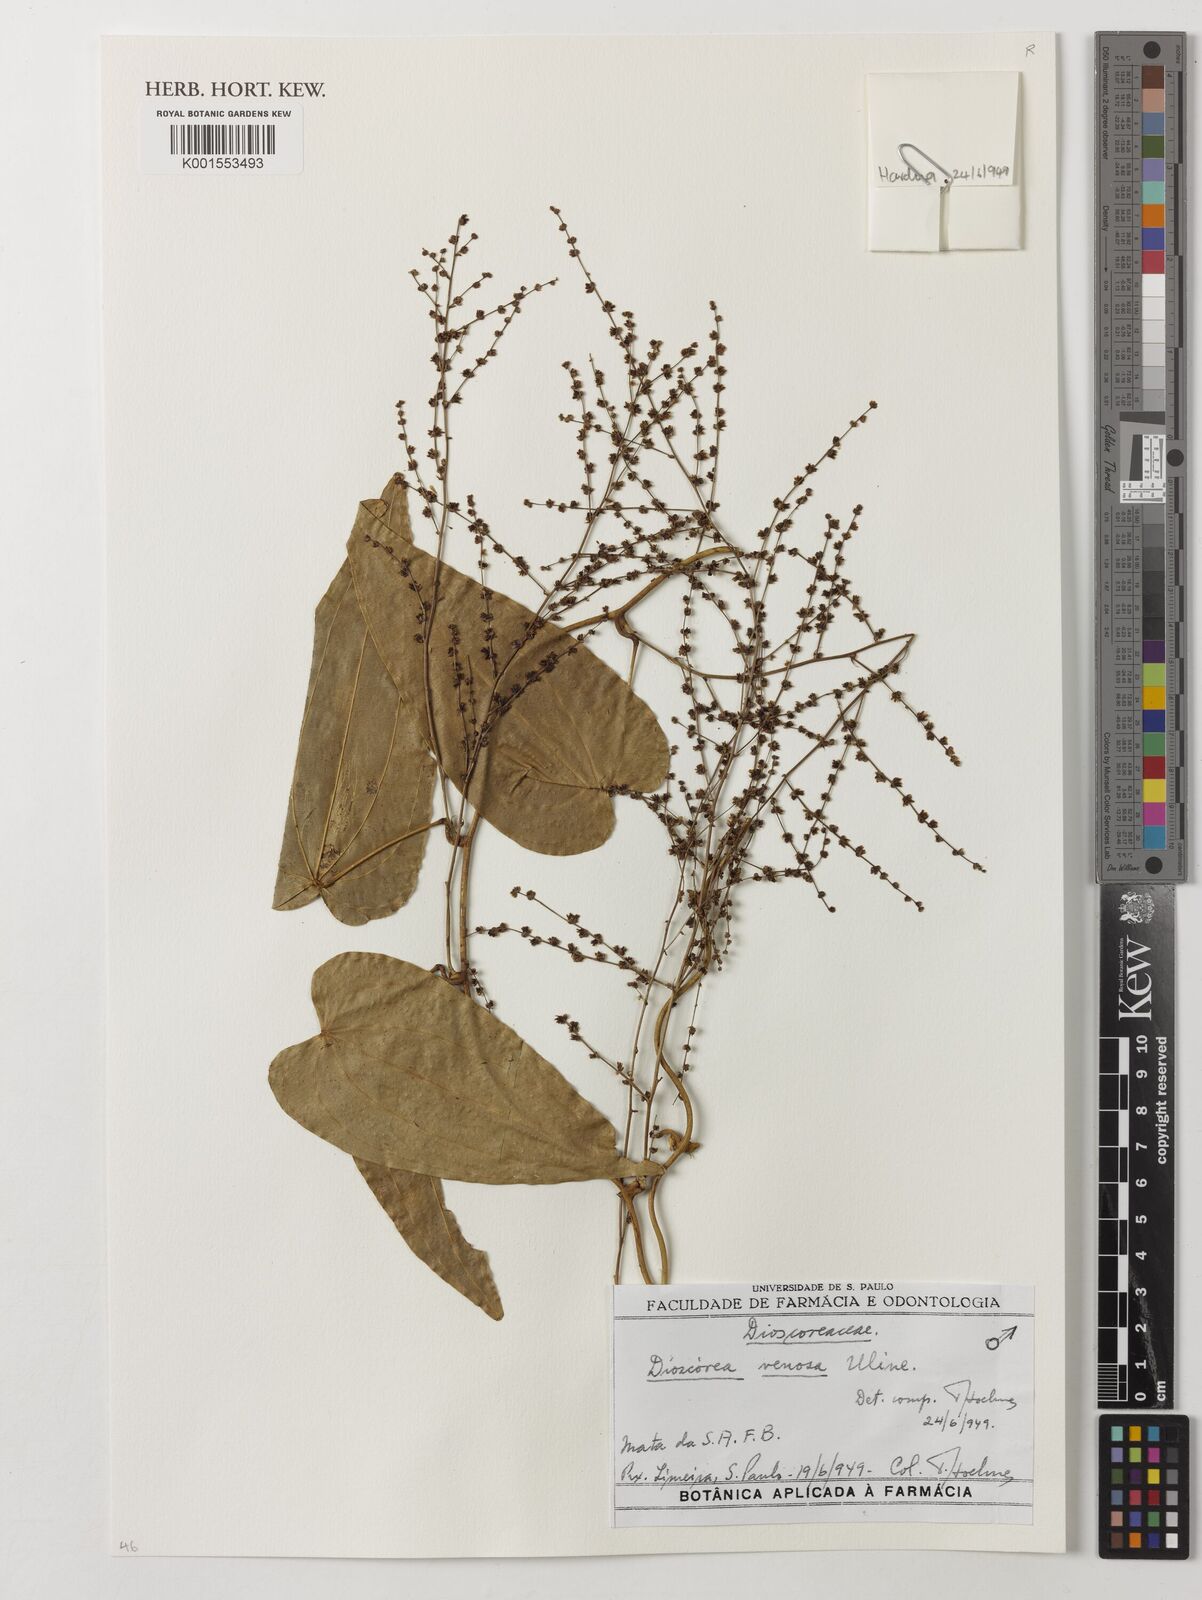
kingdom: Plantae
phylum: Tracheophyta
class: Liliopsida
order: Dioscoreales
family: Dioscoreaceae
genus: Dioscorea
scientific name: Dioscorea fodinarum
